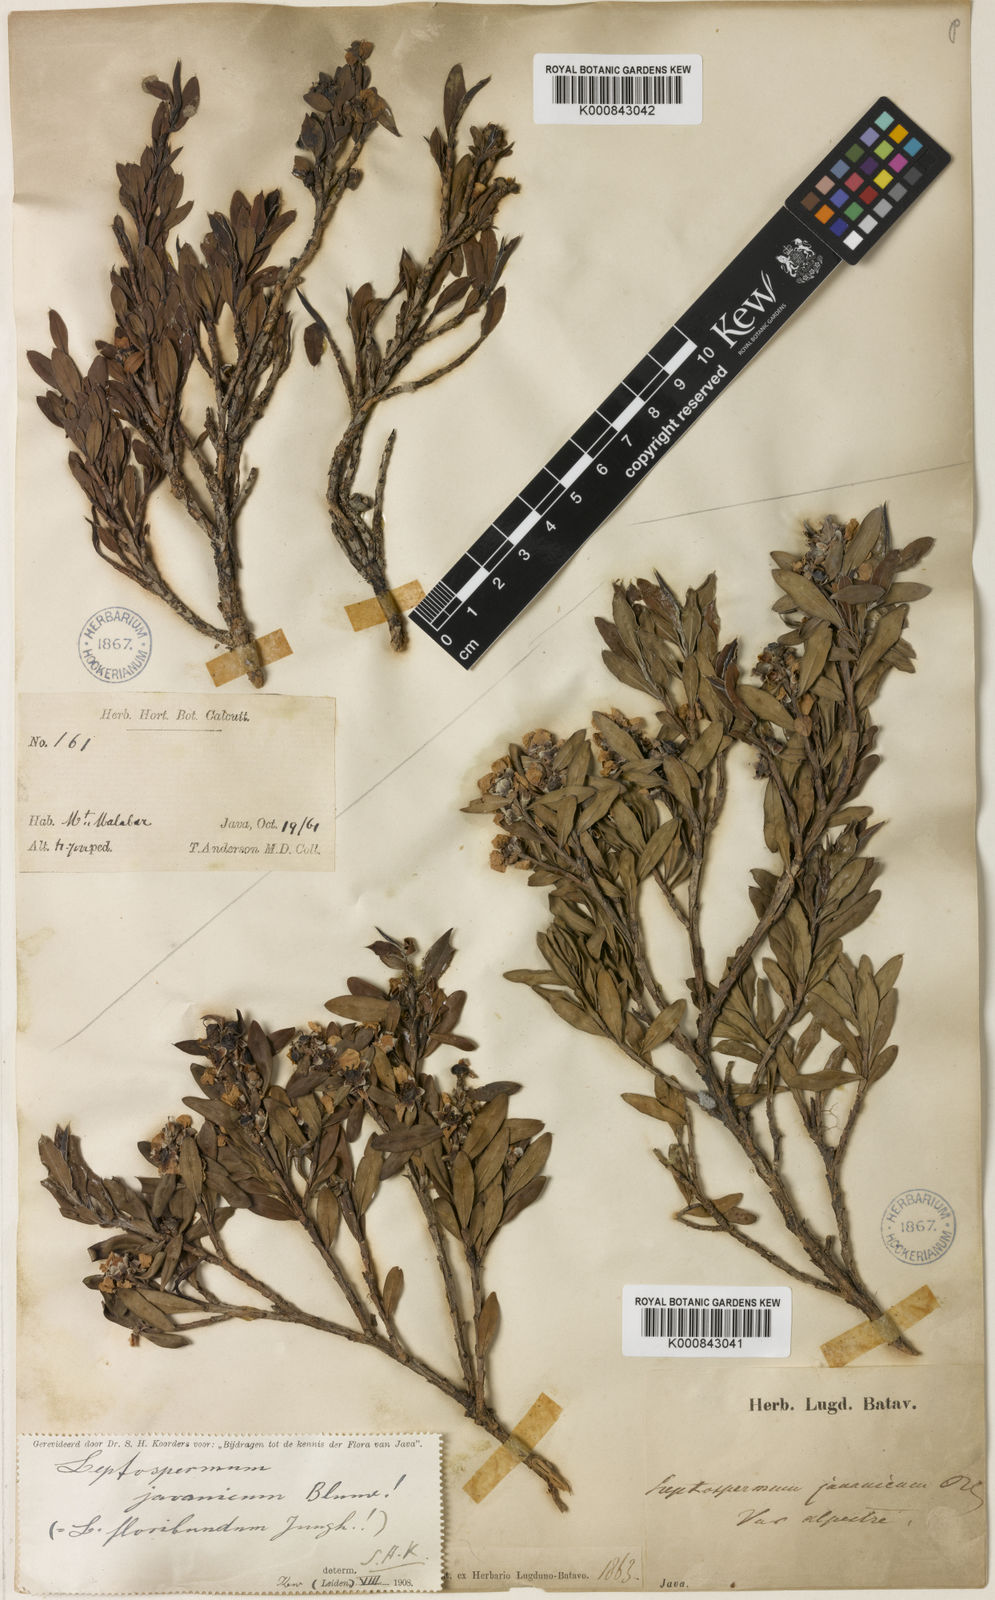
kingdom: Plantae
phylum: Tracheophyta
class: Magnoliopsida
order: Myrtales
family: Myrtaceae
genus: Leptospermum
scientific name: Leptospermum javanicum
